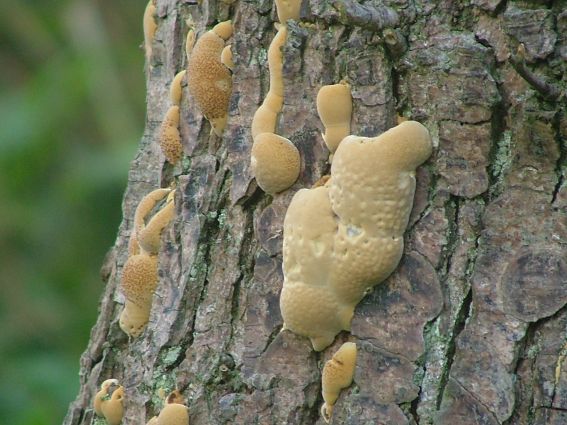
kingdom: Fungi
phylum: Basidiomycota
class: Agaricomycetes
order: Hymenochaetales
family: Hymenochaetaceae
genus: Xanthoporia
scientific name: Xanthoporia radiata
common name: elle-spejlporesvamp
